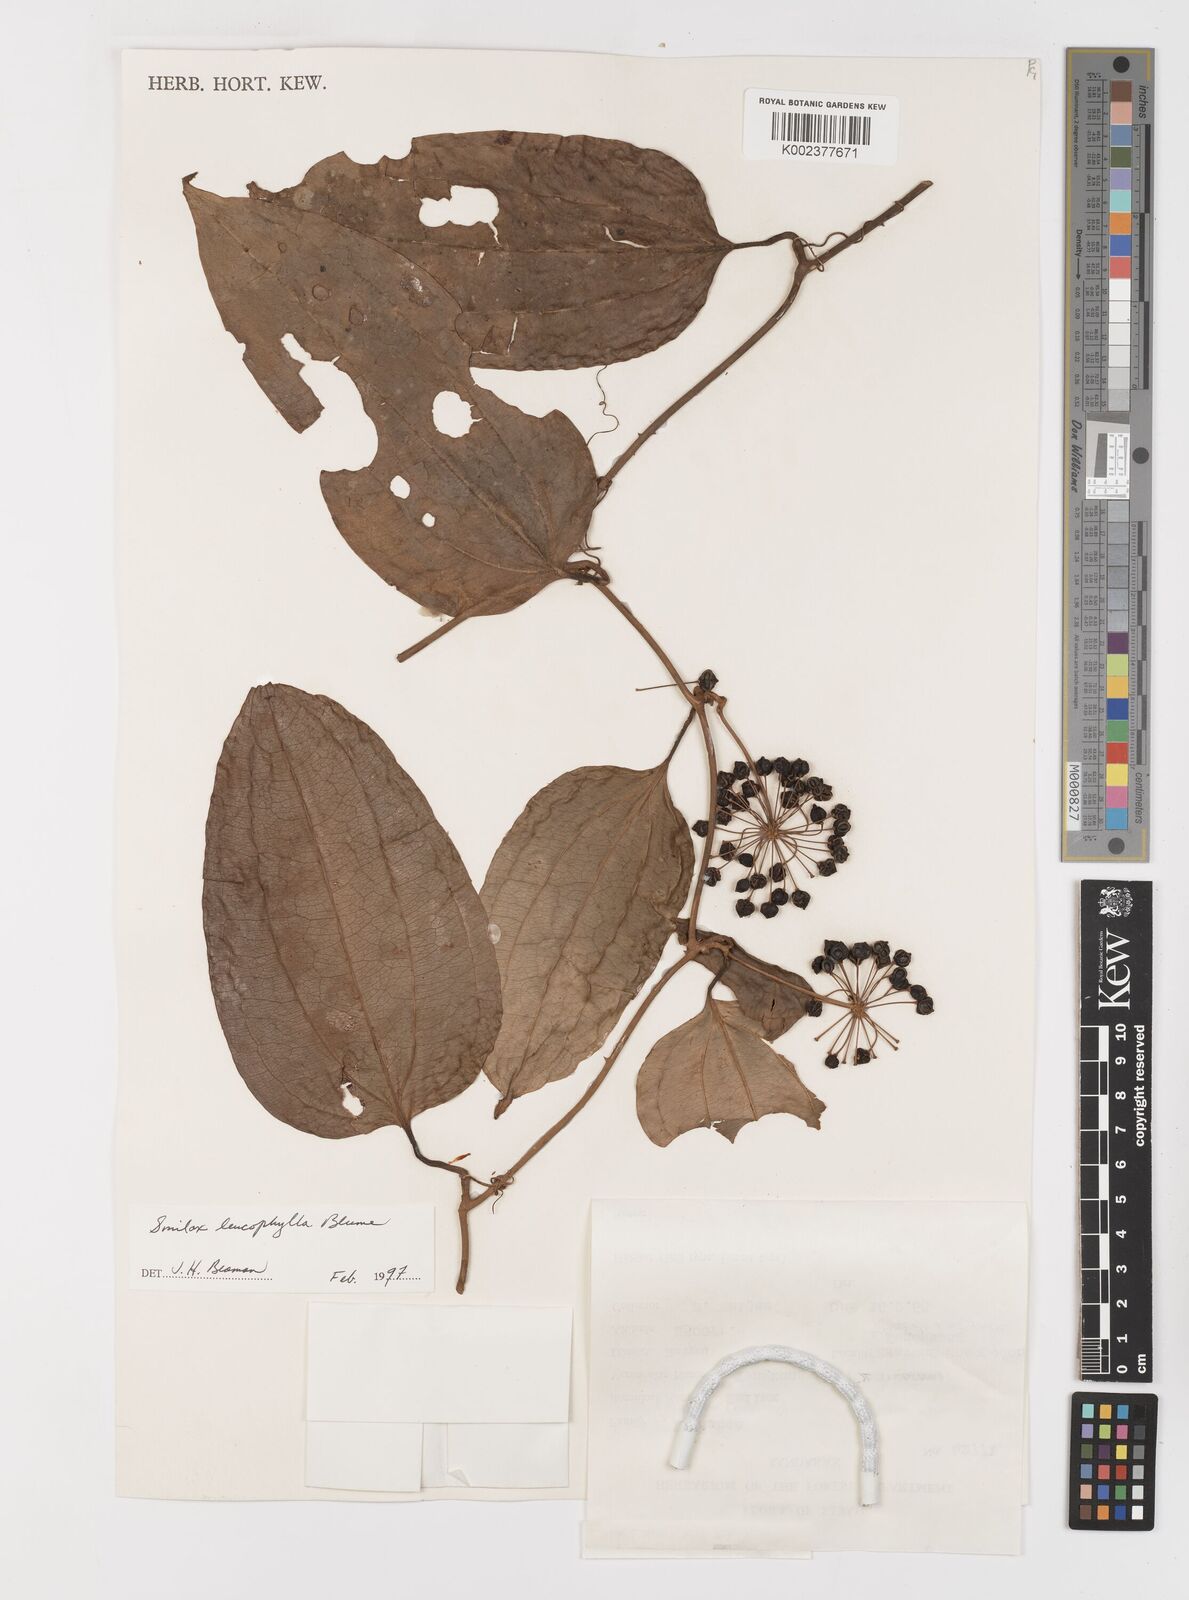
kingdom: Plantae
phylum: Tracheophyta
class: Liliopsida
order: Liliales
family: Smilacaceae
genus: Smilax
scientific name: Smilax leucophylla
